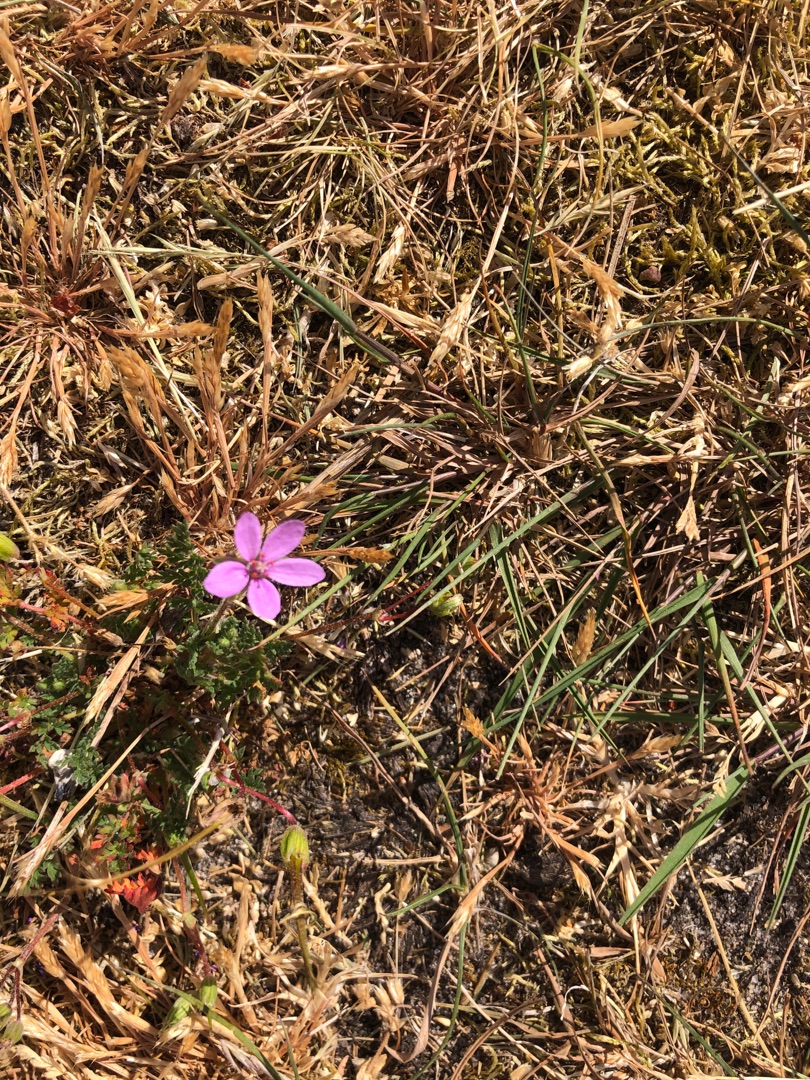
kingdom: Plantae
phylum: Tracheophyta
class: Magnoliopsida
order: Geraniales
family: Geraniaceae
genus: Erodium
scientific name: Erodium cicutarium
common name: Hejrenæb
